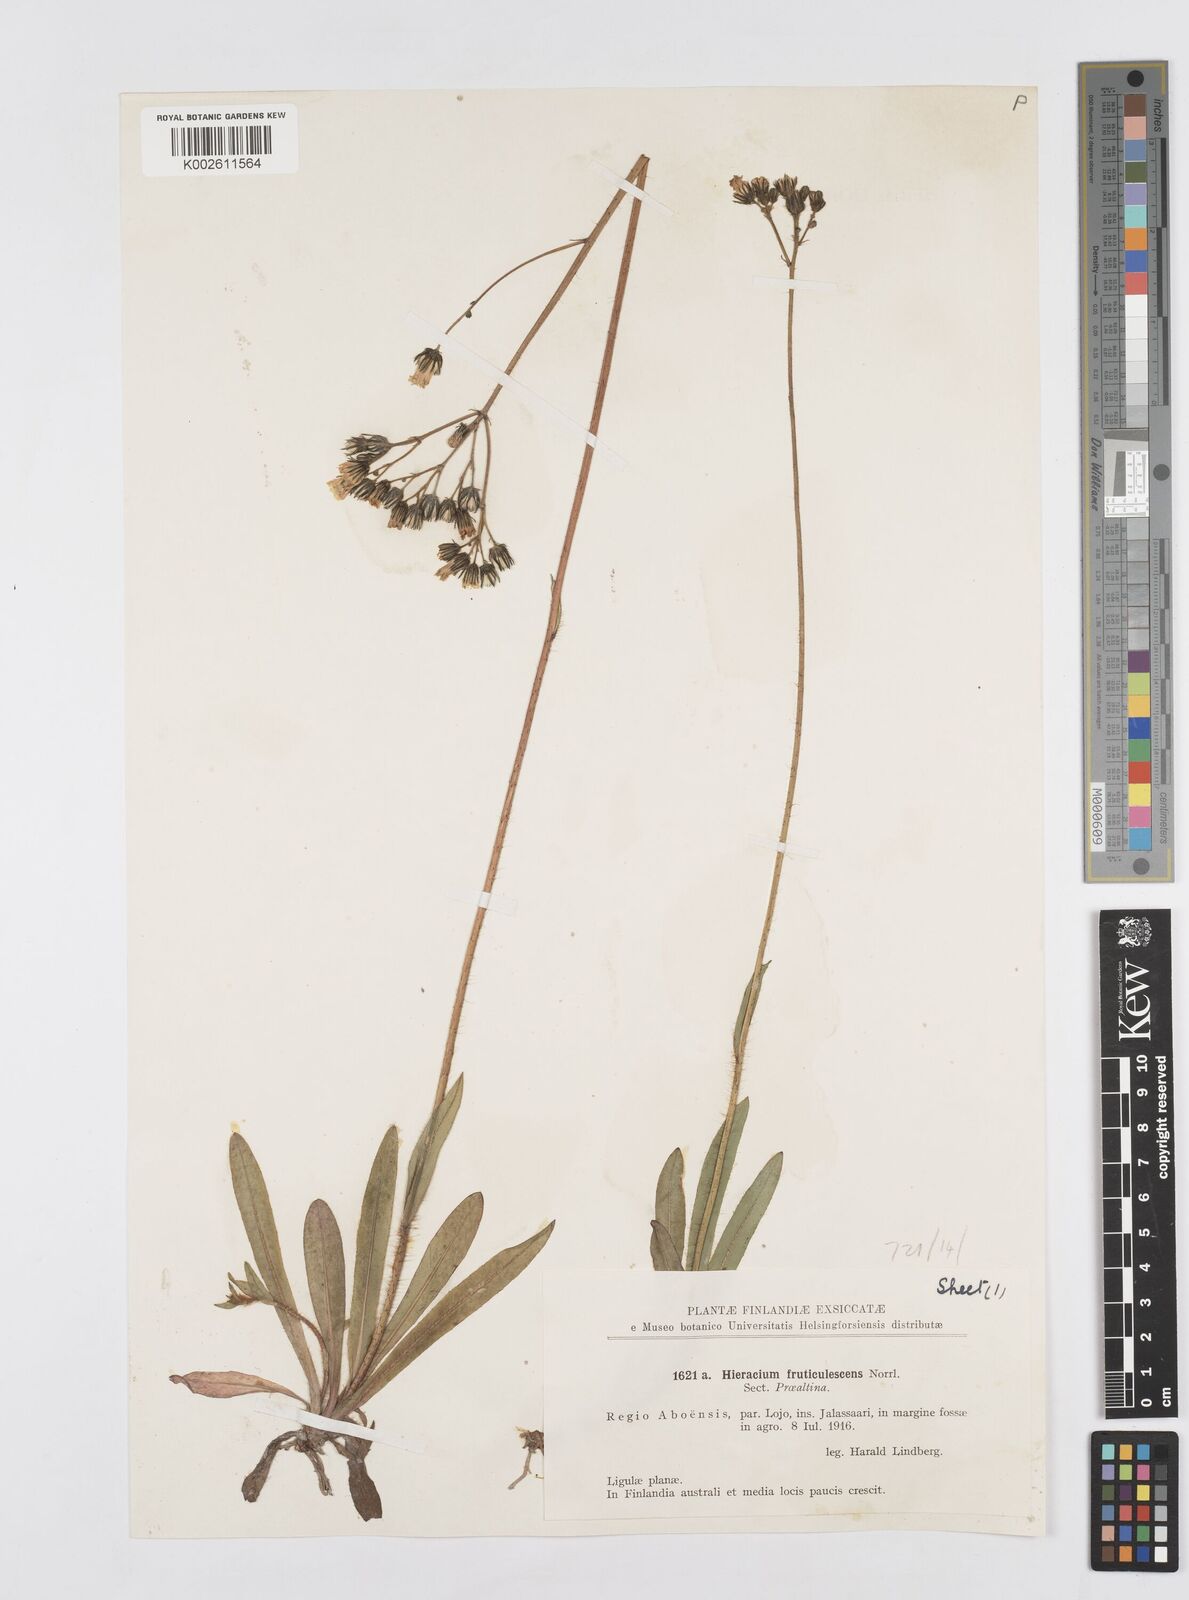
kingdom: Plantae
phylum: Tracheophyta
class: Magnoliopsida
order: Asterales
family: Asteraceae
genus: Pilosella
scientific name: Pilosella erythrochrista
